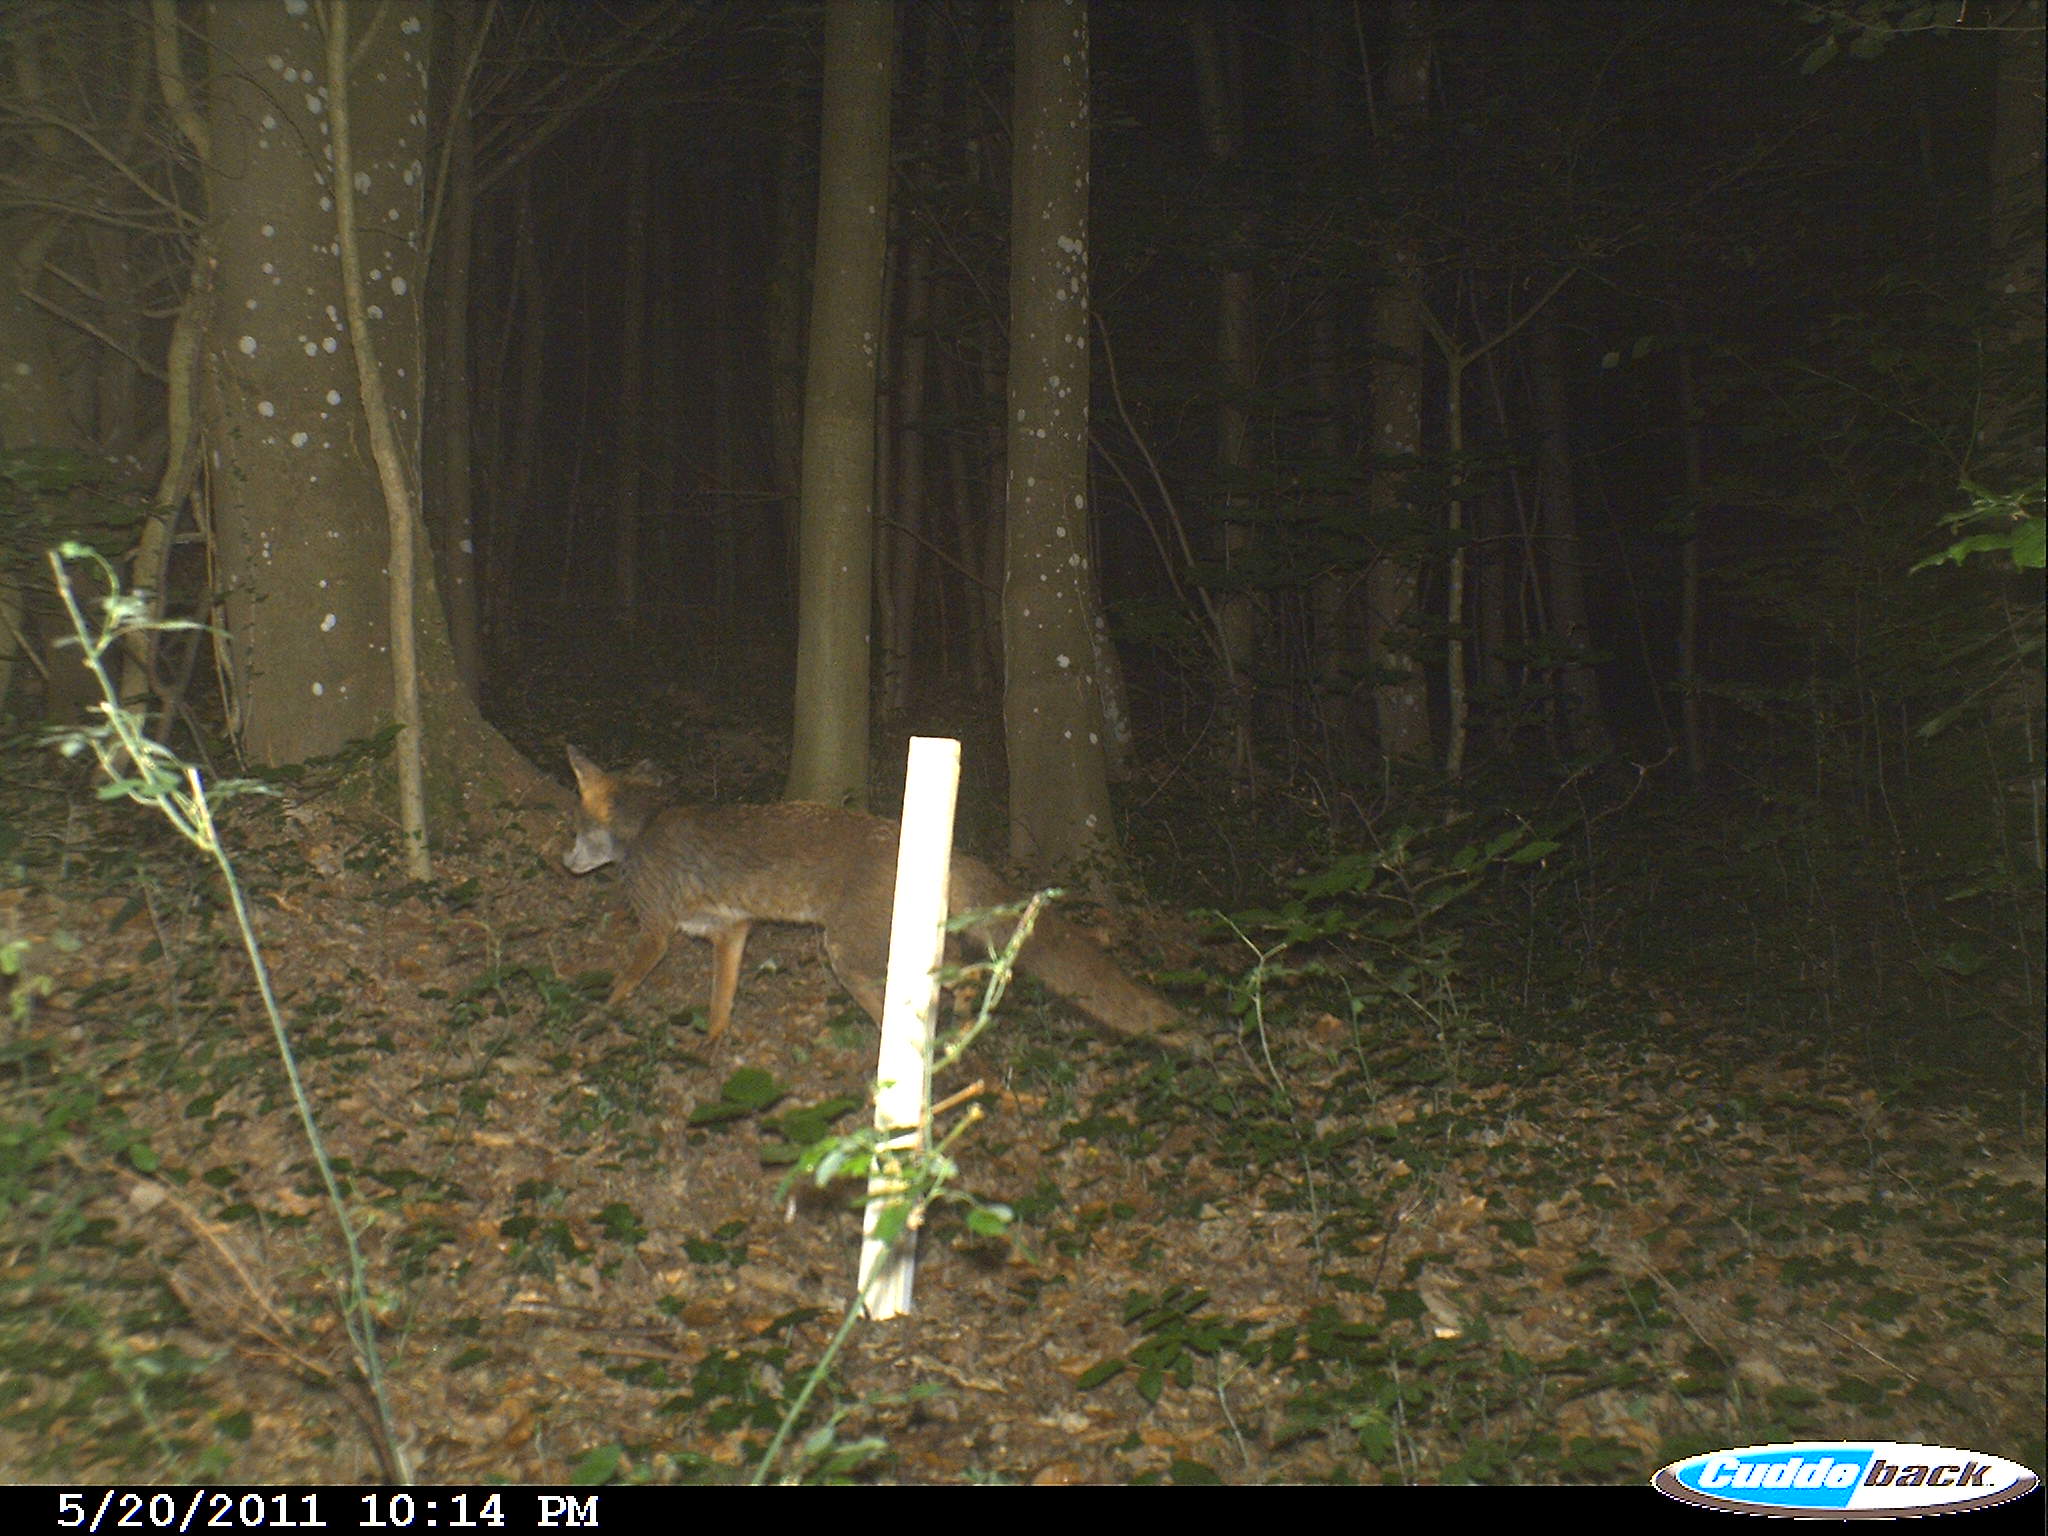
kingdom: Animalia
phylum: Chordata
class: Mammalia
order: Carnivora
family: Canidae
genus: Vulpes
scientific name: Vulpes vulpes
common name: Red fox
